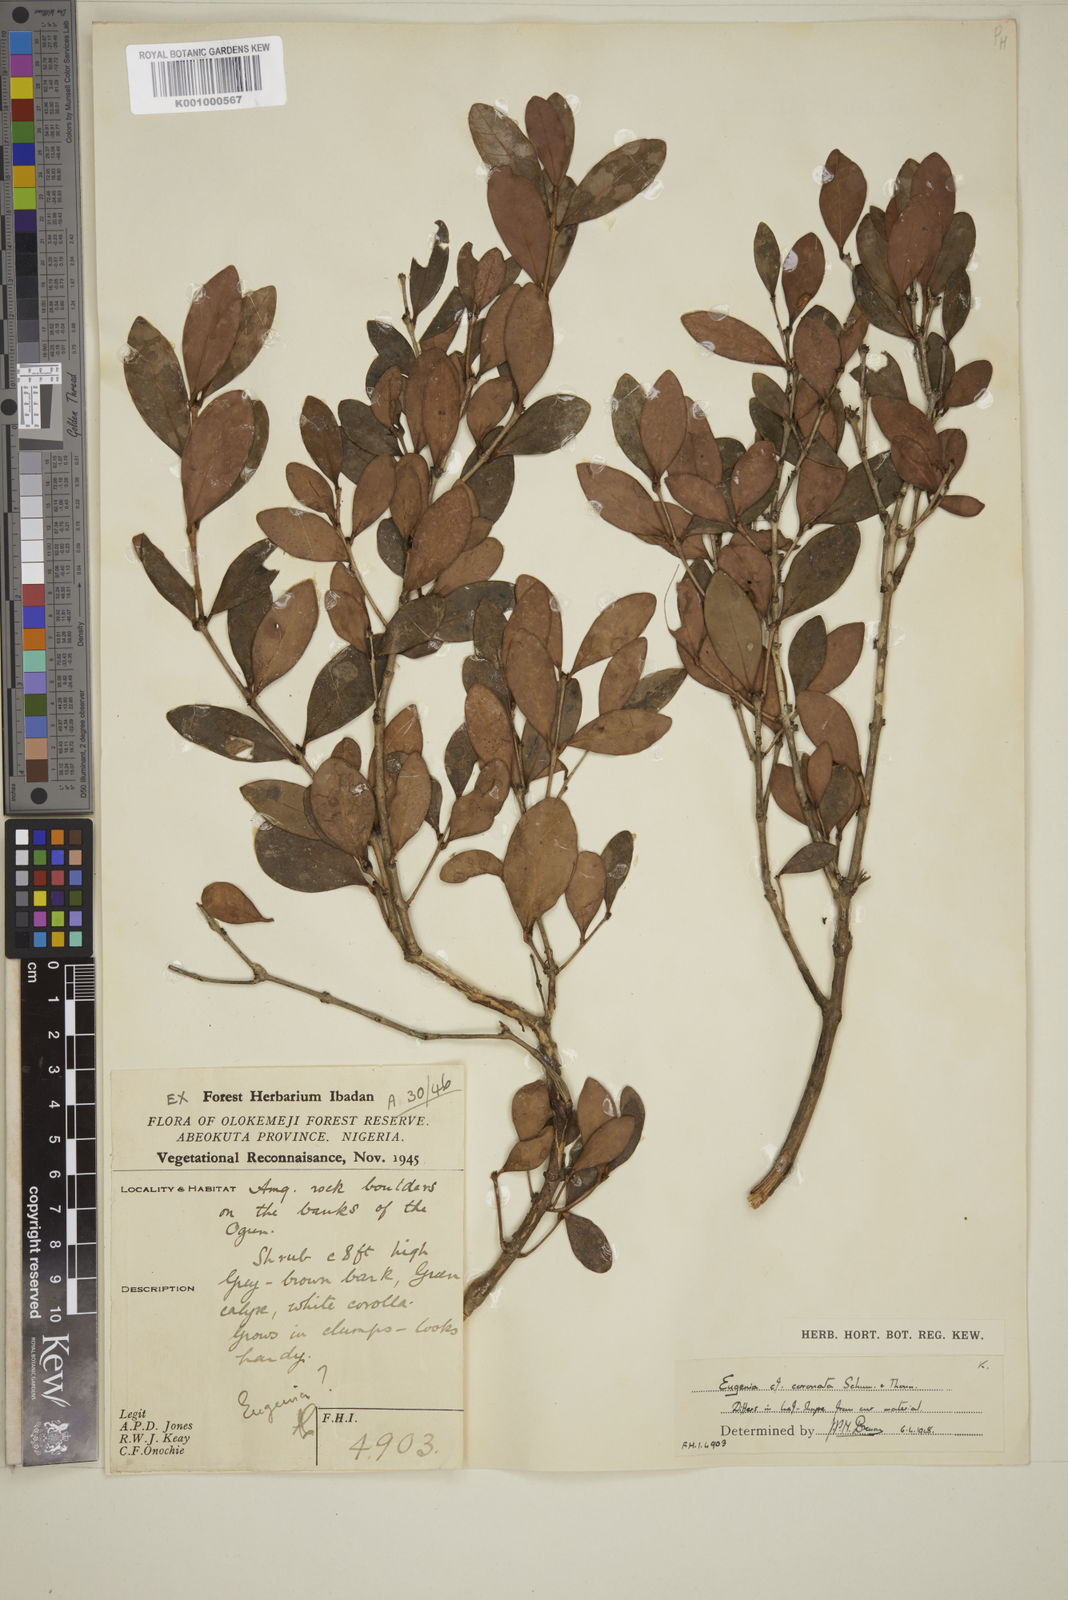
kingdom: Plantae
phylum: Tracheophyta
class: Magnoliopsida
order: Myrtales
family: Myrtaceae
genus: Eugenia
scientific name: Eugenia coronata
